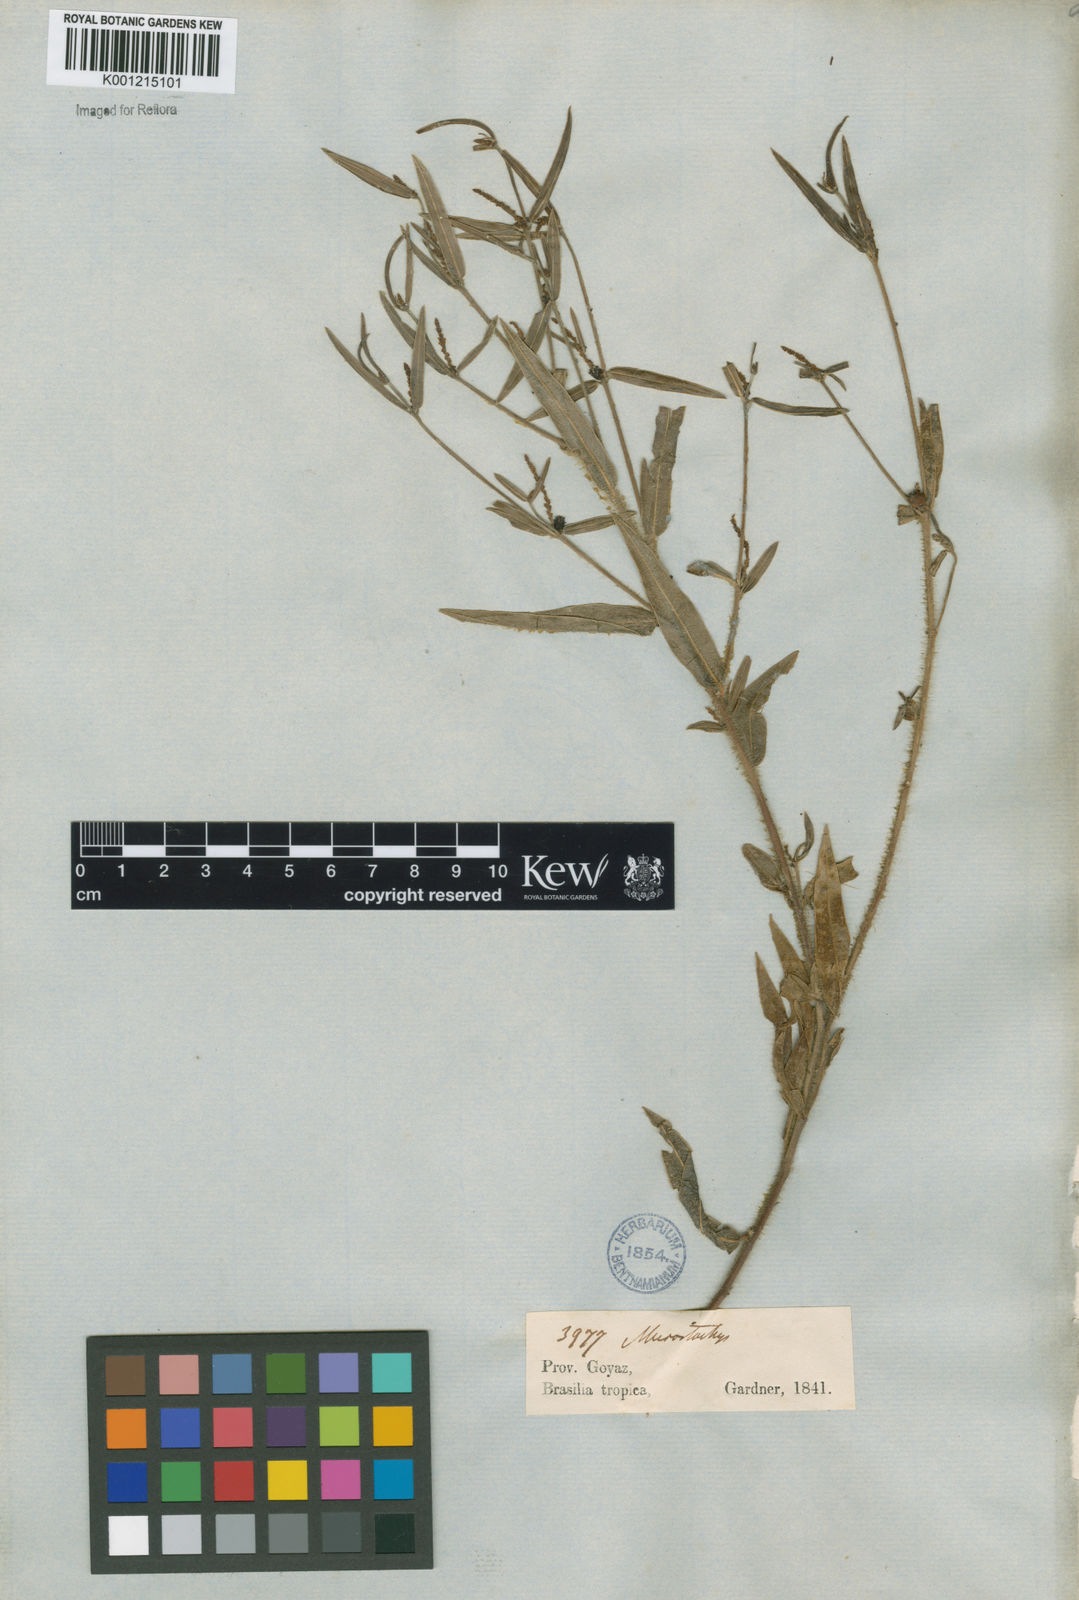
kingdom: Plantae
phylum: Tracheophyta
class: Magnoliopsida
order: Malpighiales
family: Euphorbiaceae
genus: Sebastiania
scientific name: Sebastiania
